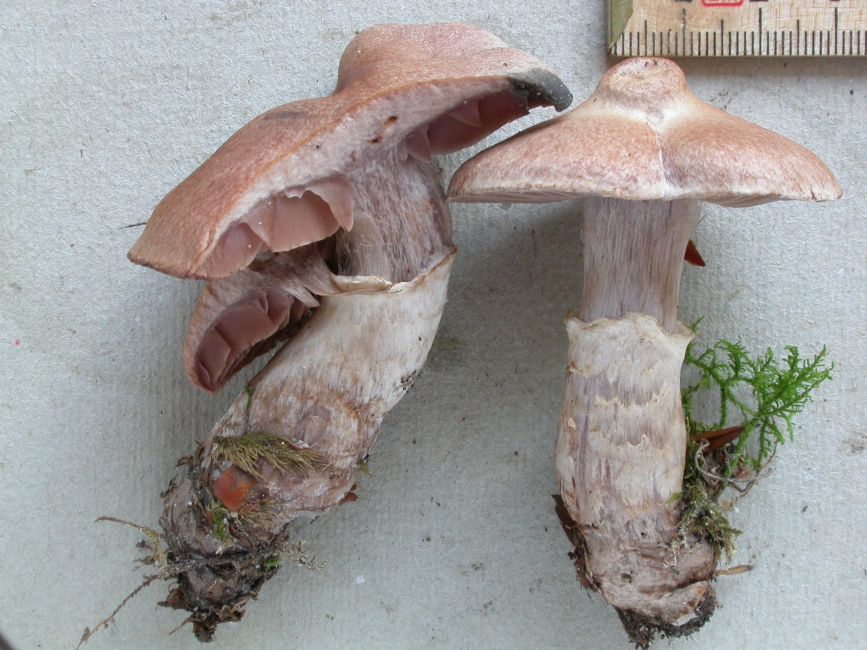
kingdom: Fungi
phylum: Basidiomycota
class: Agaricomycetes
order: Agaricales
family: Cortinariaceae
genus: Cortinarius
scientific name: Cortinarius torvus
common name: champignonagtig slørhat
